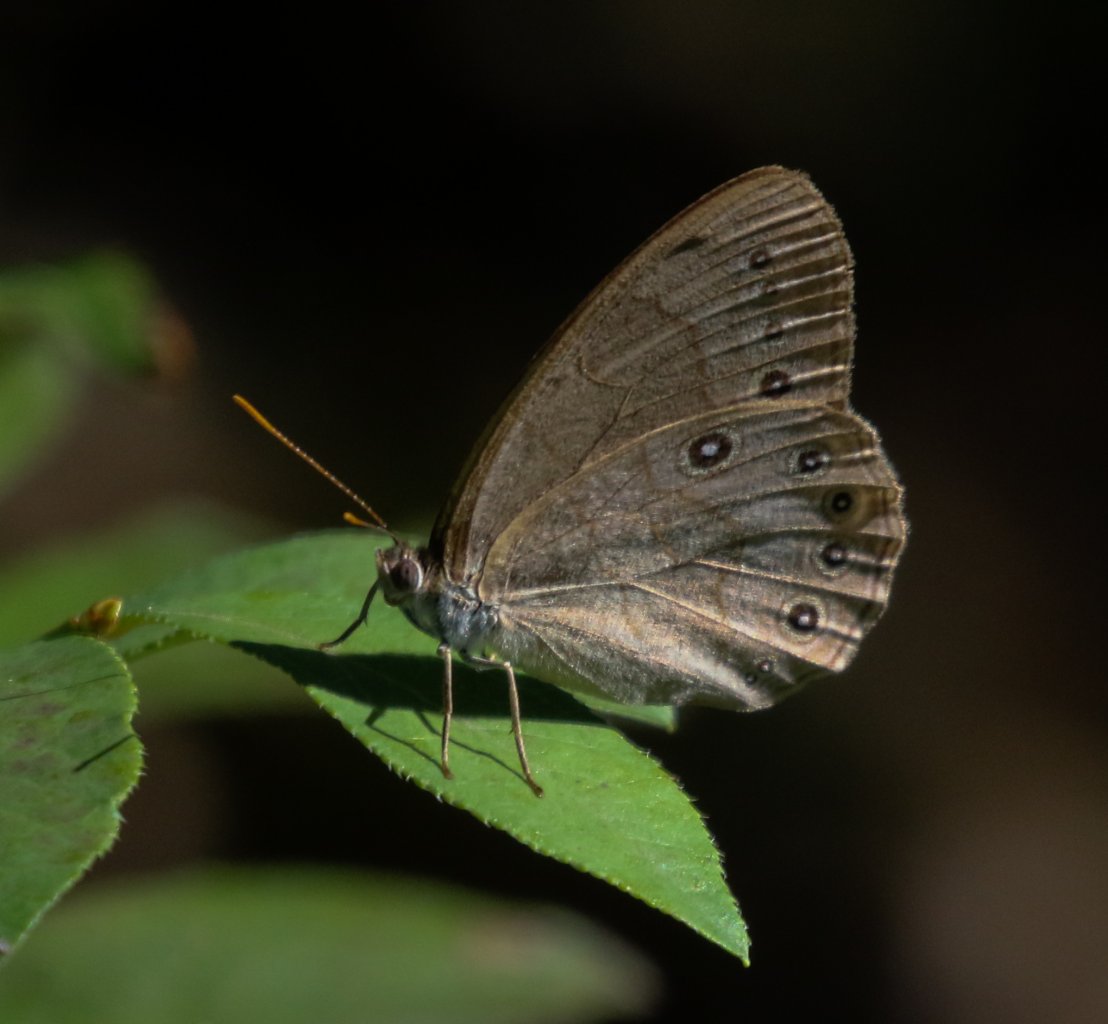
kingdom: Animalia
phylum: Arthropoda
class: Insecta
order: Lepidoptera
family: Nymphalidae
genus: Lethe
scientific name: Lethe eurydice
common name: Eyed Brown
